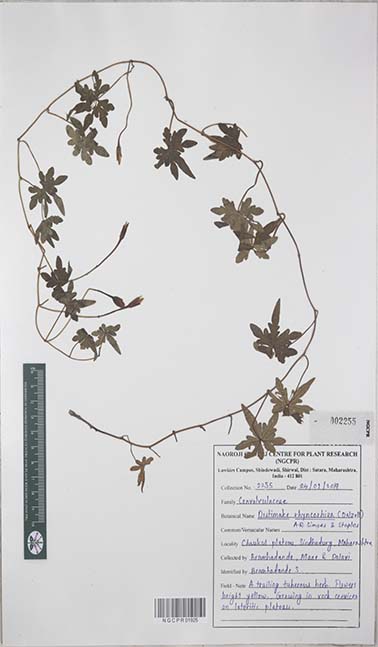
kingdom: Plantae
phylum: Tracheophyta
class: Magnoliopsida
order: Solanales
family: Convolvulaceae
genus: Distimake
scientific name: Distimake rhynchorrhizus
